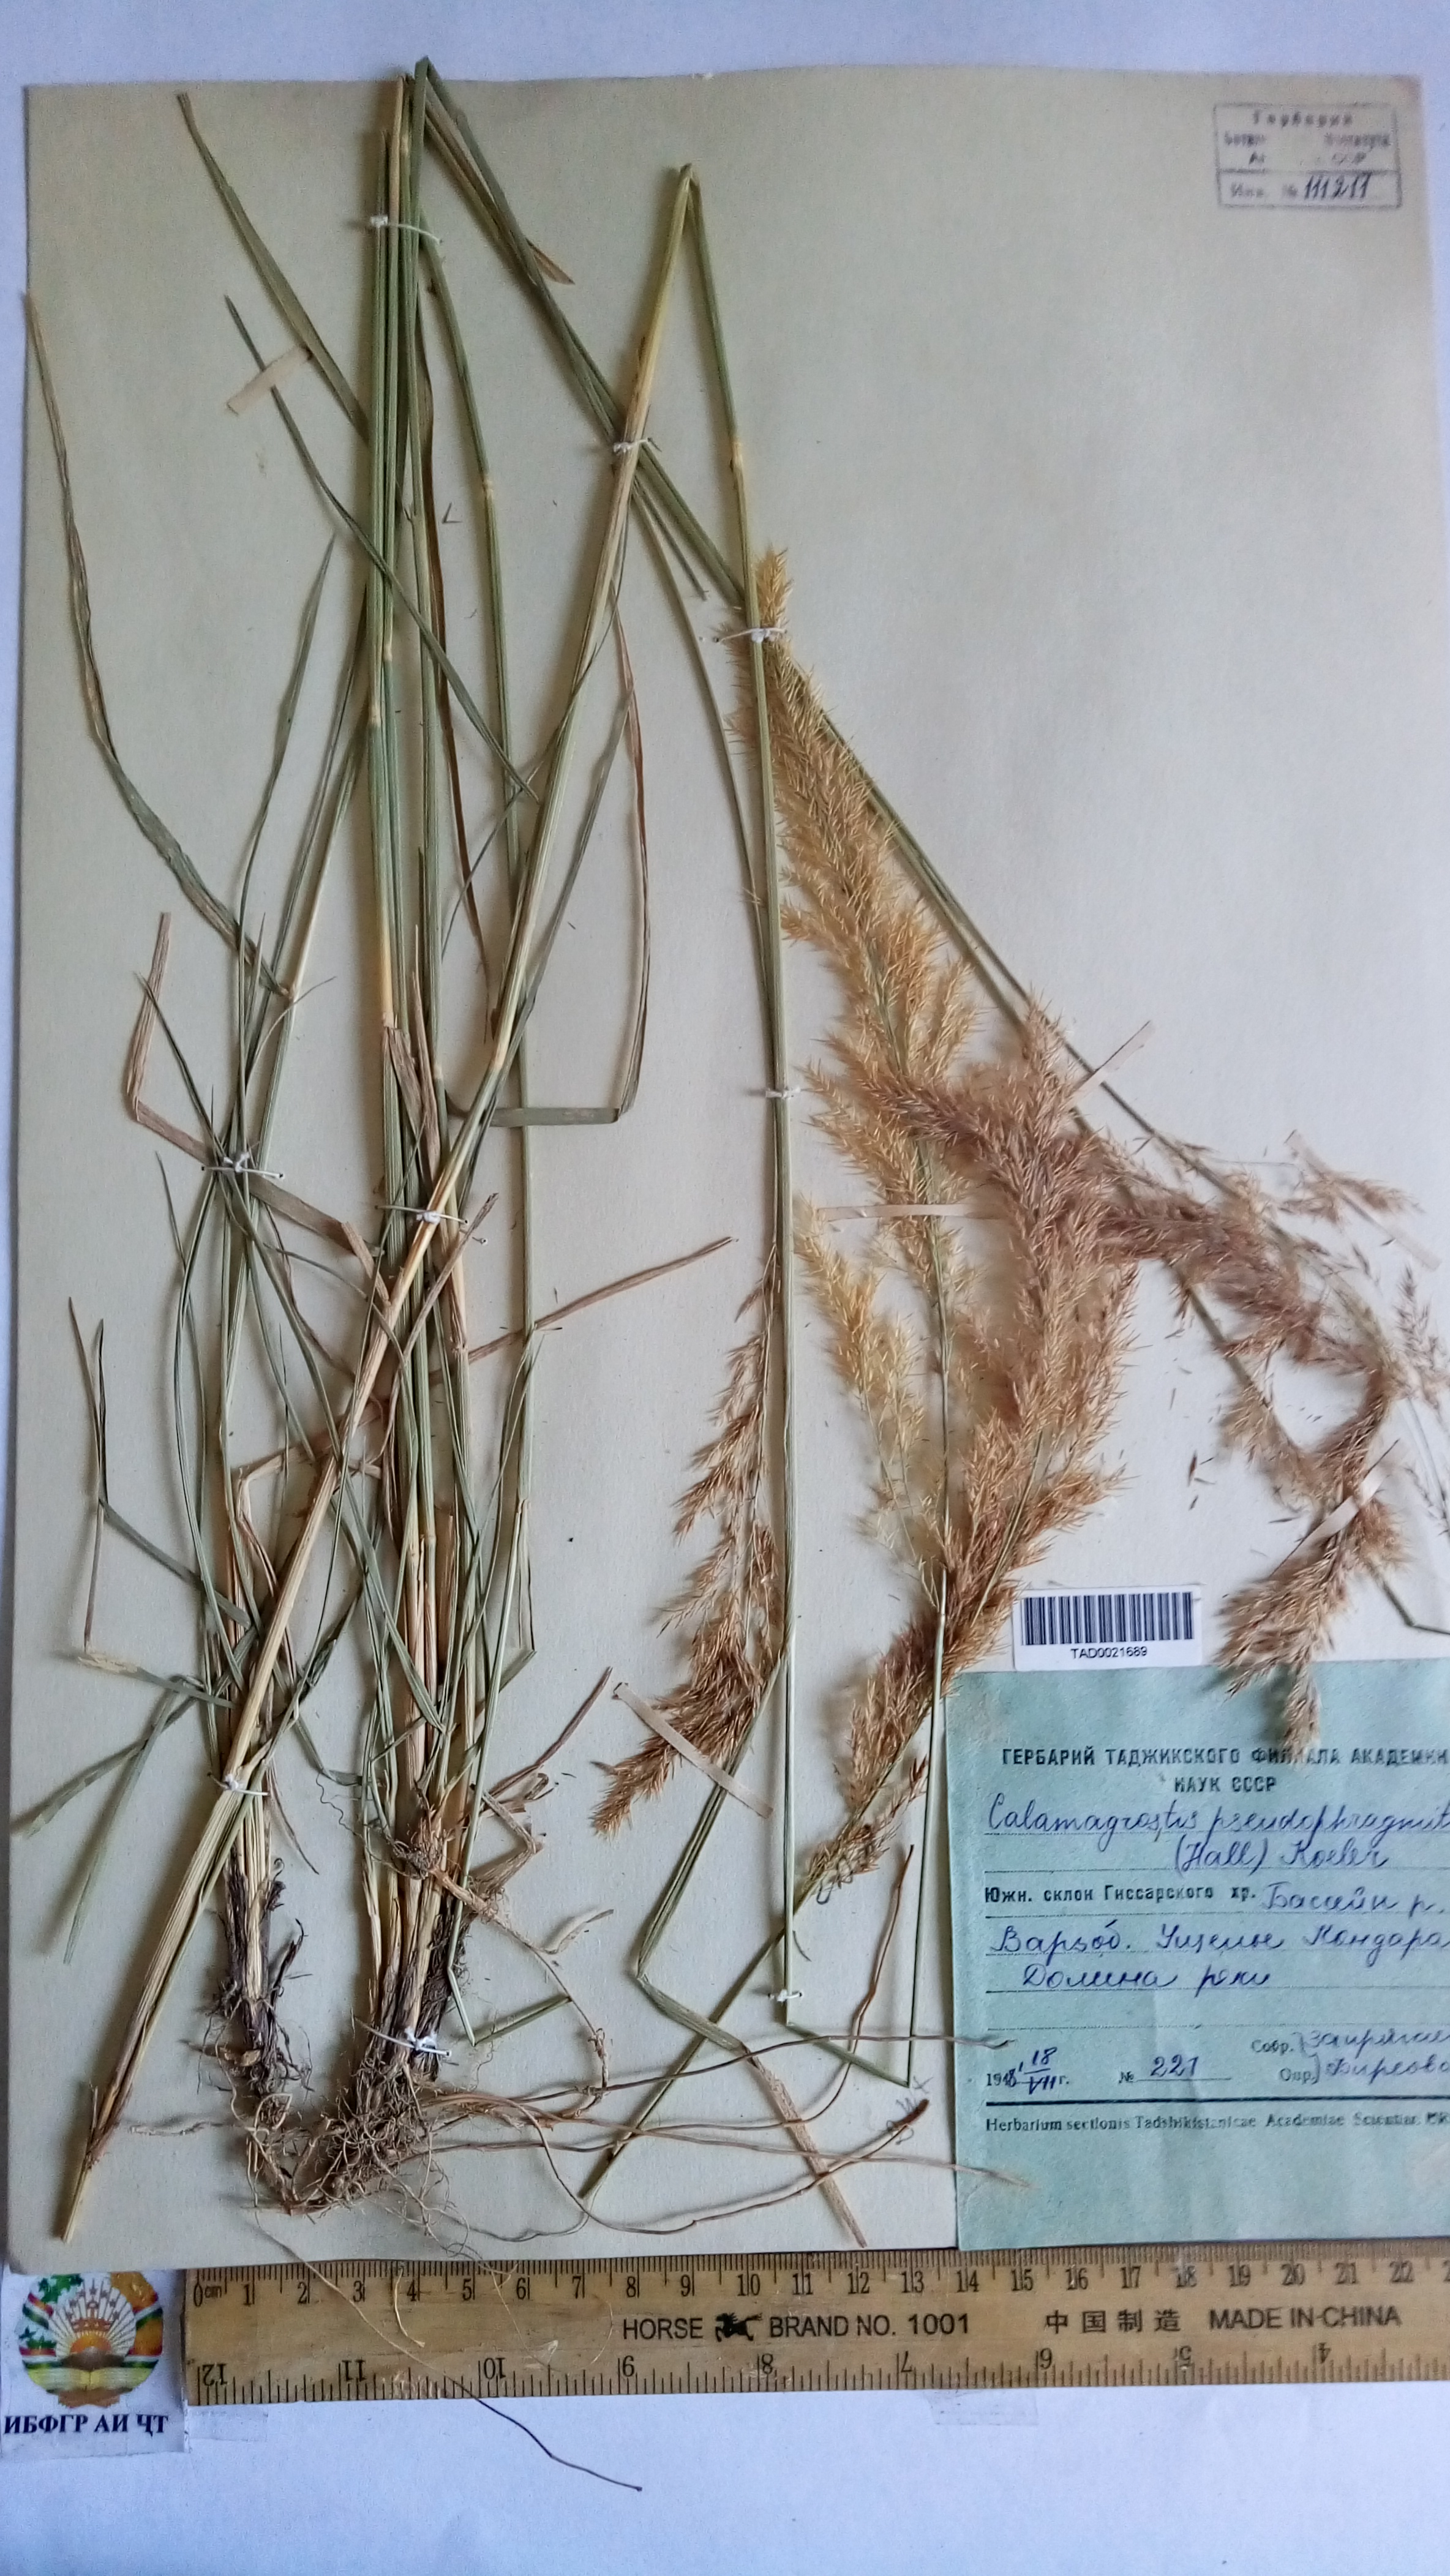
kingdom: Plantae
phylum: Tracheophyta
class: Liliopsida
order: Poales
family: Poaceae
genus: Calamagrostis
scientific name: Calamagrostis pseudophragmites
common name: Coastal small-reed
